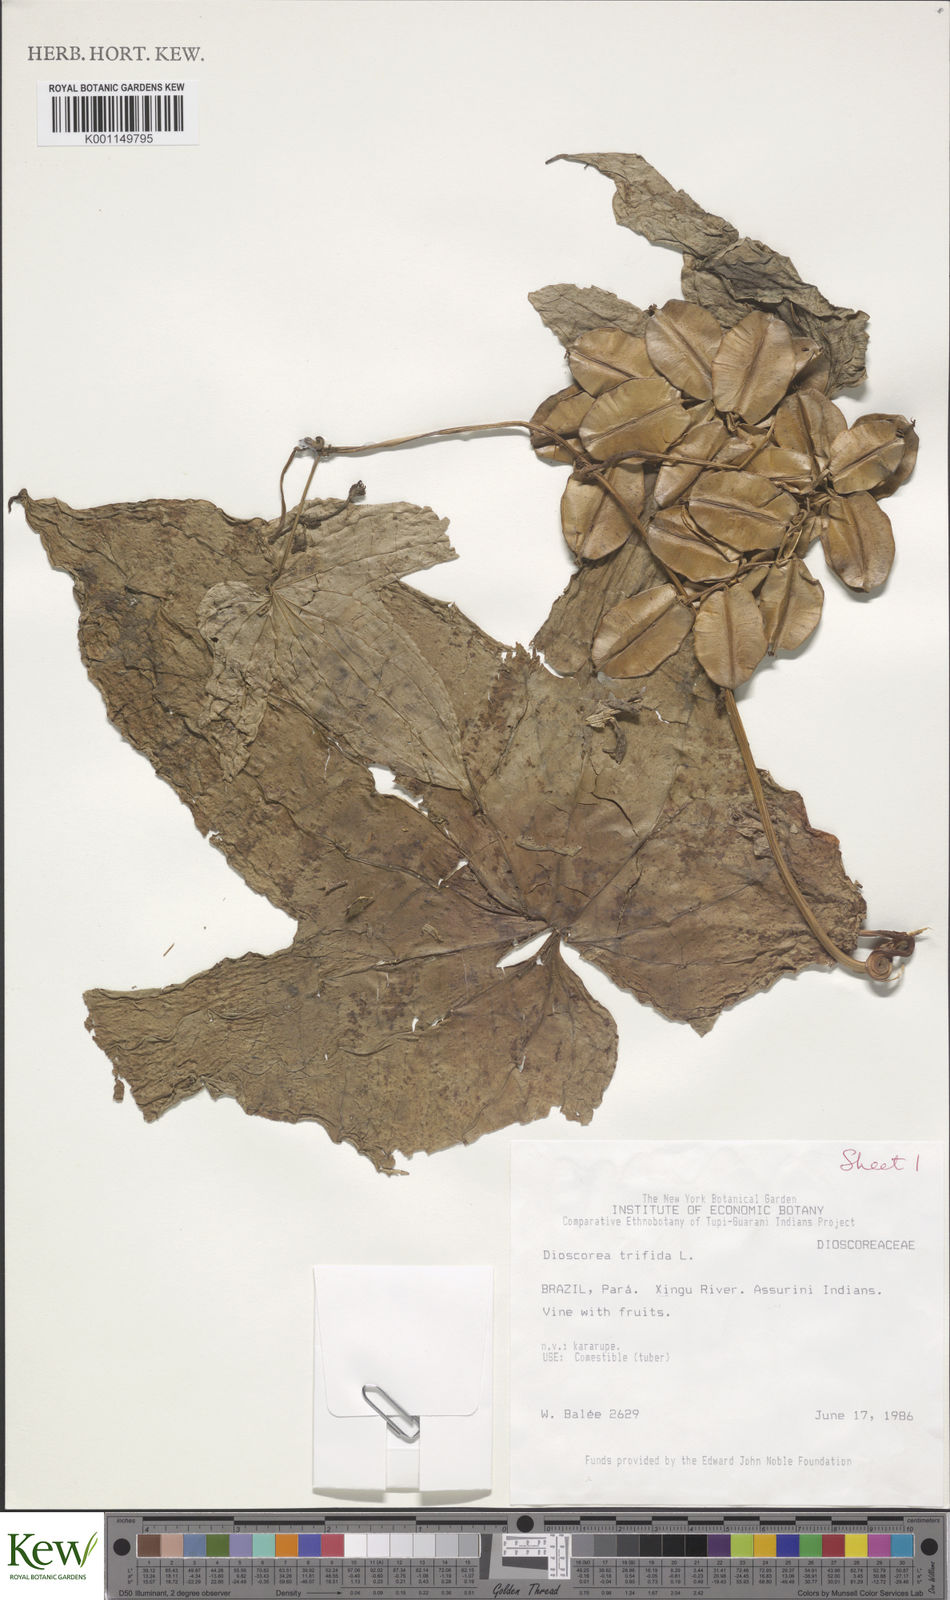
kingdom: Plantae
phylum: Tracheophyta
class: Liliopsida
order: Dioscoreales
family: Dioscoreaceae
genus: Dioscorea
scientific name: Dioscorea trifida
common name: Cush-cush
